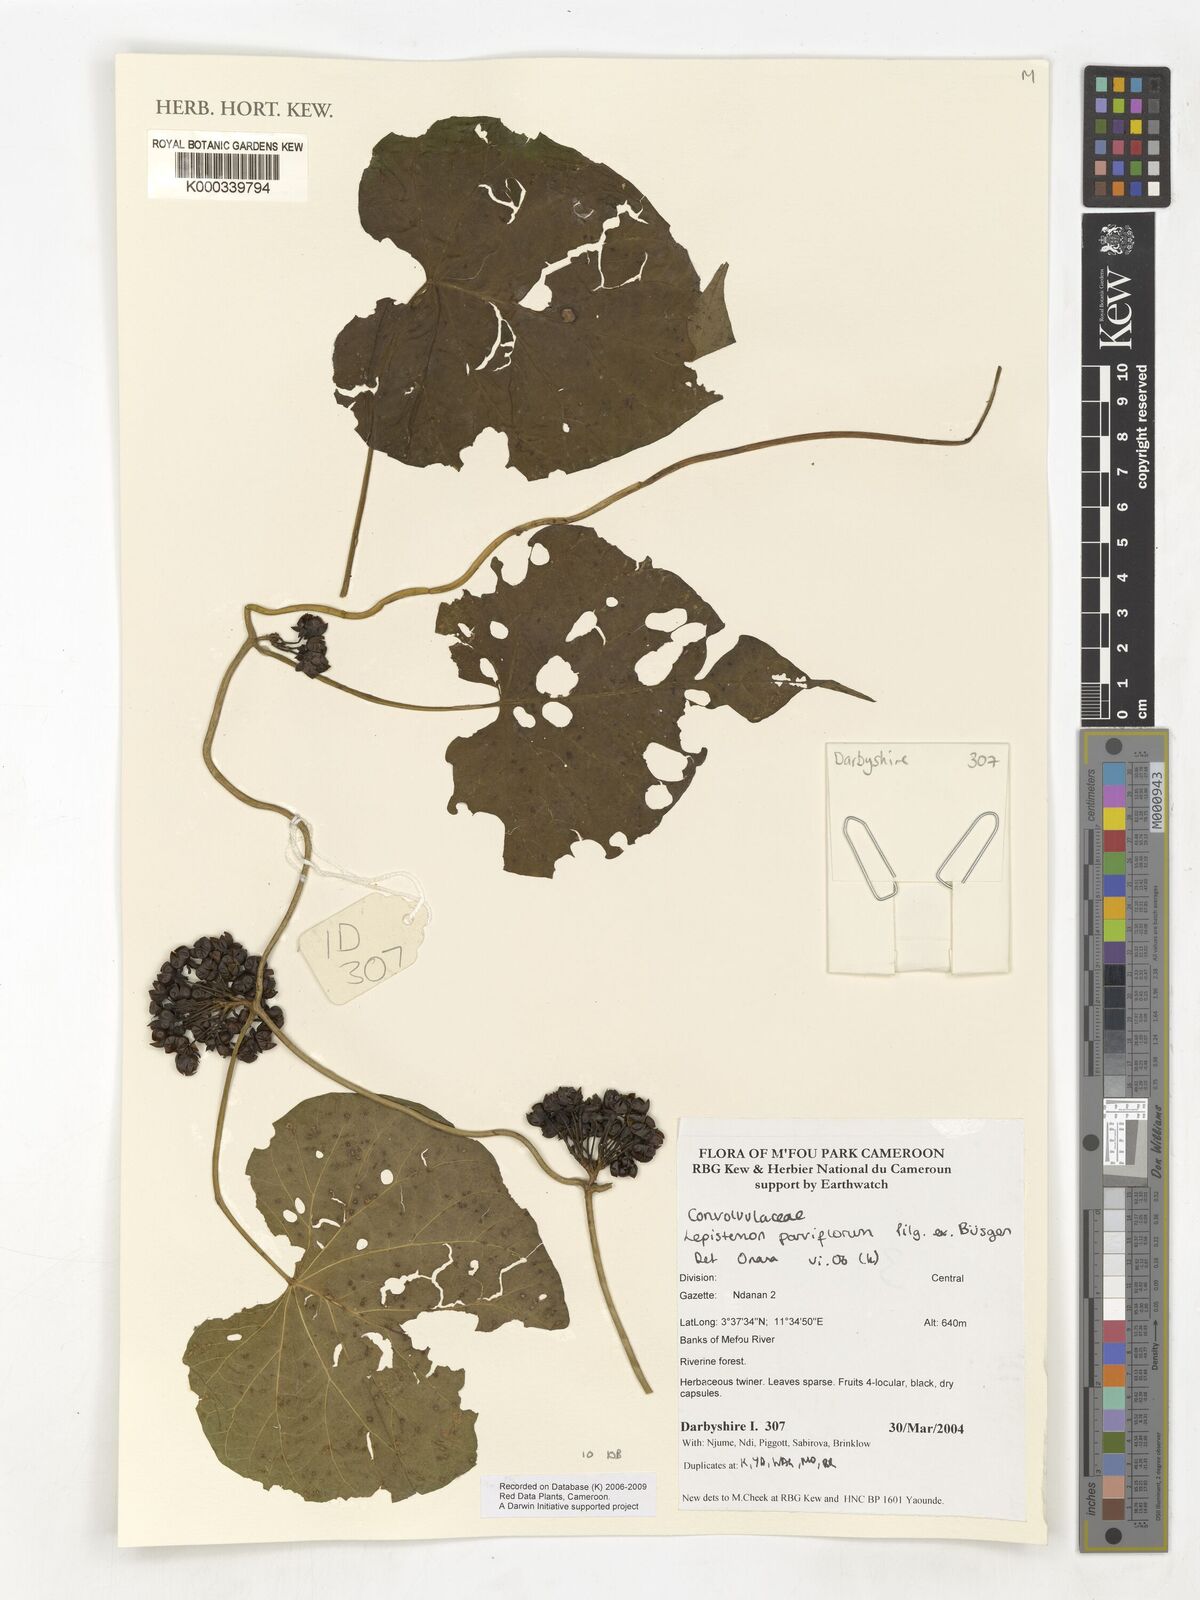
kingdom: Plantae
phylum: Tracheophyta
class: Magnoliopsida
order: Solanales
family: Convolvulaceae
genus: Lepistemon
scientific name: Lepistemon
